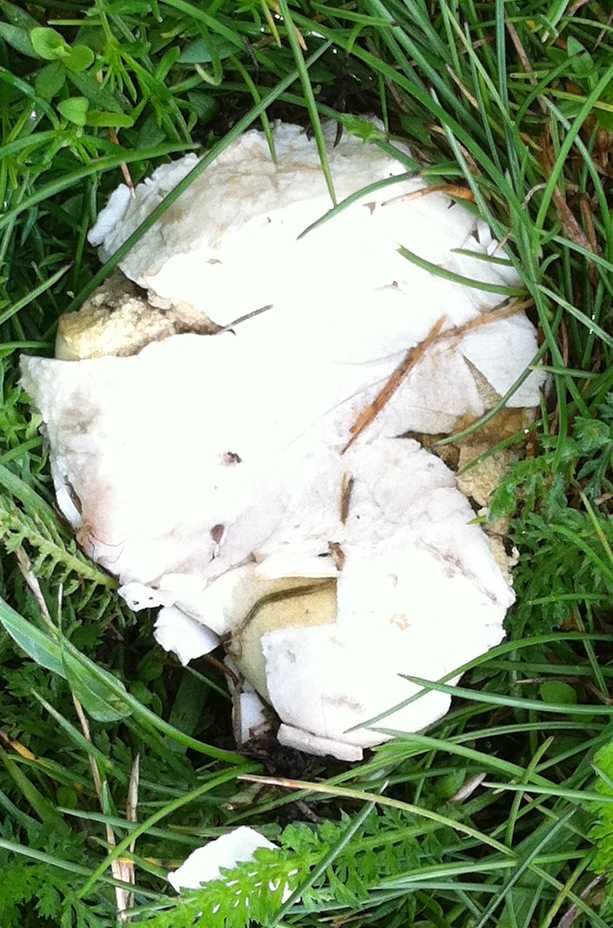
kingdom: Fungi
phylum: Basidiomycota
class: Agaricomycetes
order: Agaricales
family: Agaricaceae
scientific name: Agaricaceae
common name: champignonfamilien
